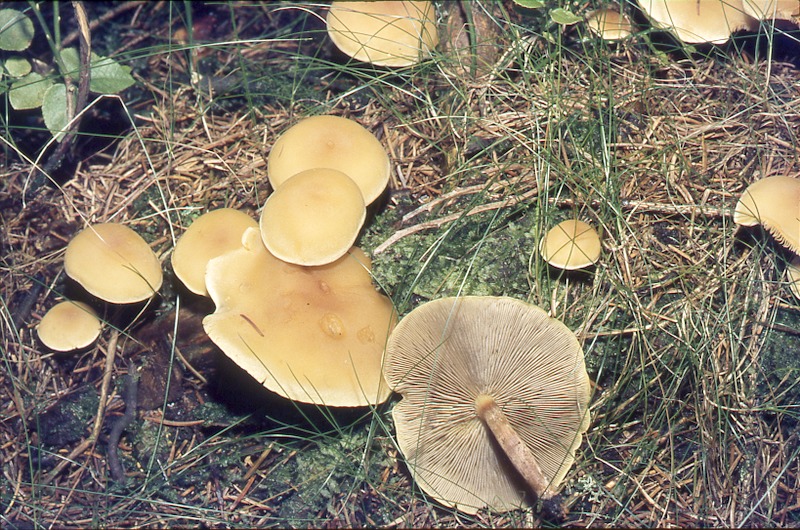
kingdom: Fungi
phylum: Basidiomycota
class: Agaricomycetes
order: Agaricales
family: Strophariaceae
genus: Hypholoma
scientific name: Hypholoma capnoides
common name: Conifer tuft
